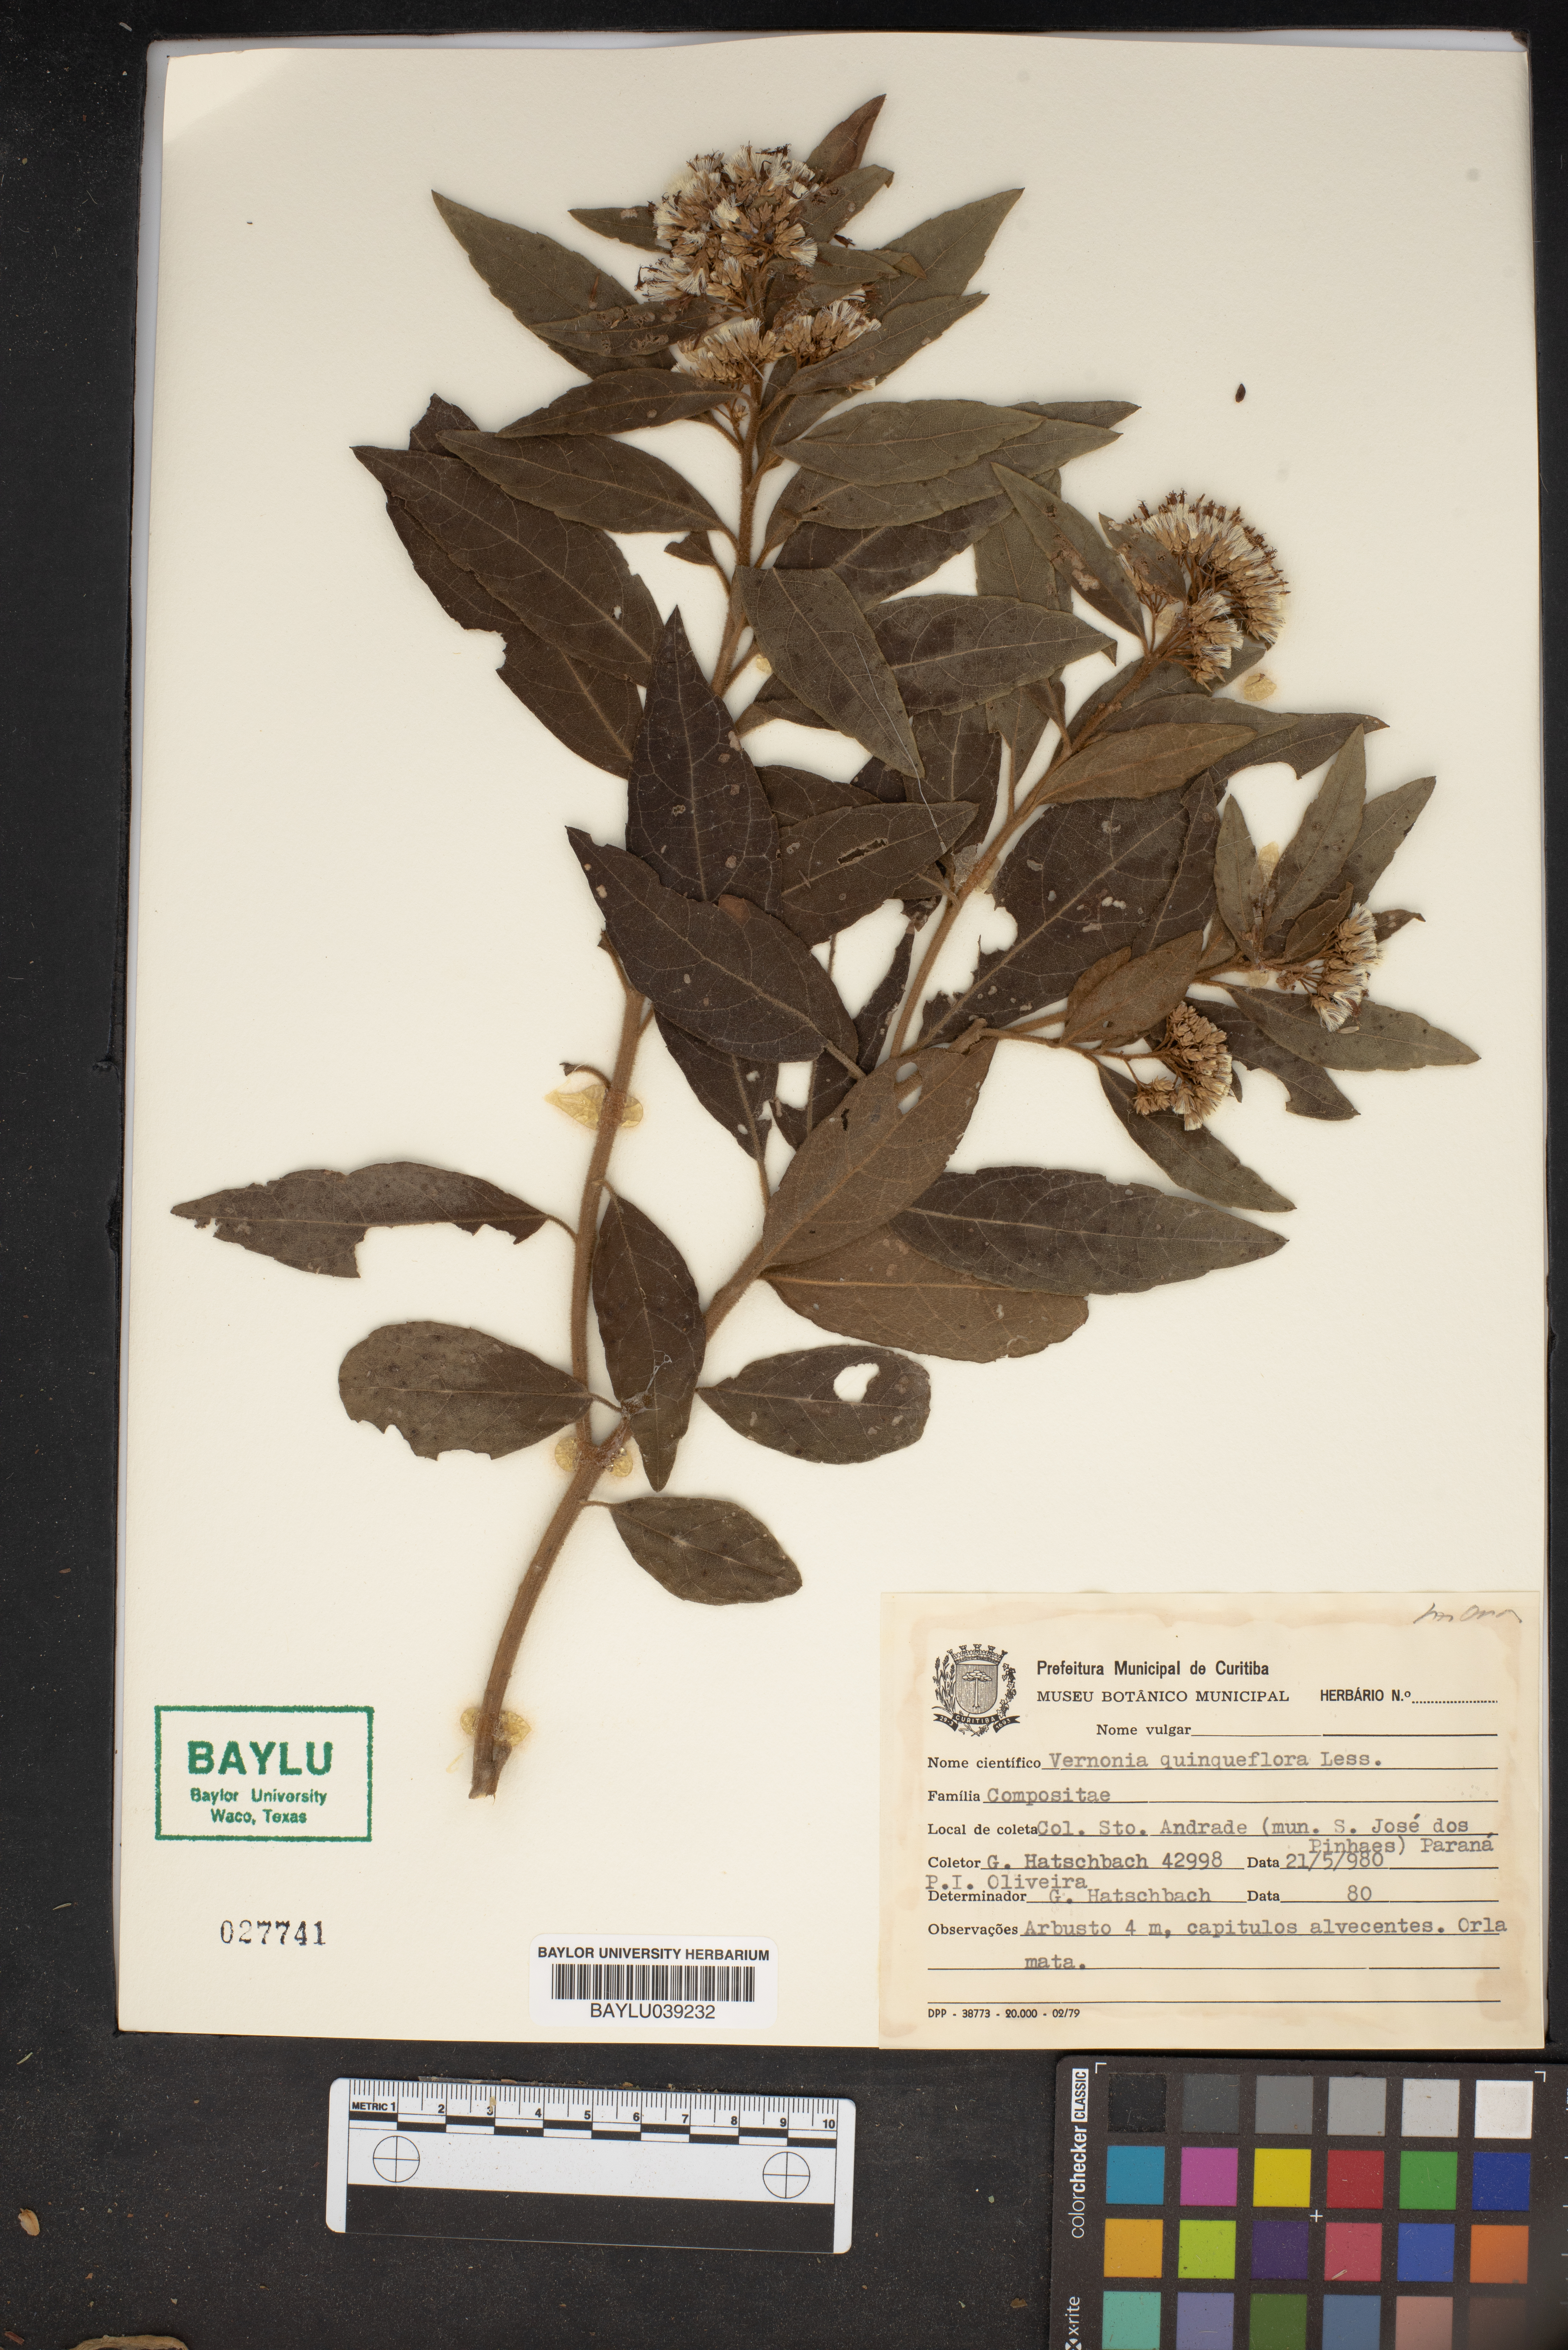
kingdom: Plantae
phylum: Tracheophyta
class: Magnoliopsida
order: Asterales
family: Asteraceae
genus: Critoniopsis
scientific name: Critoniopsis quinqueflora
